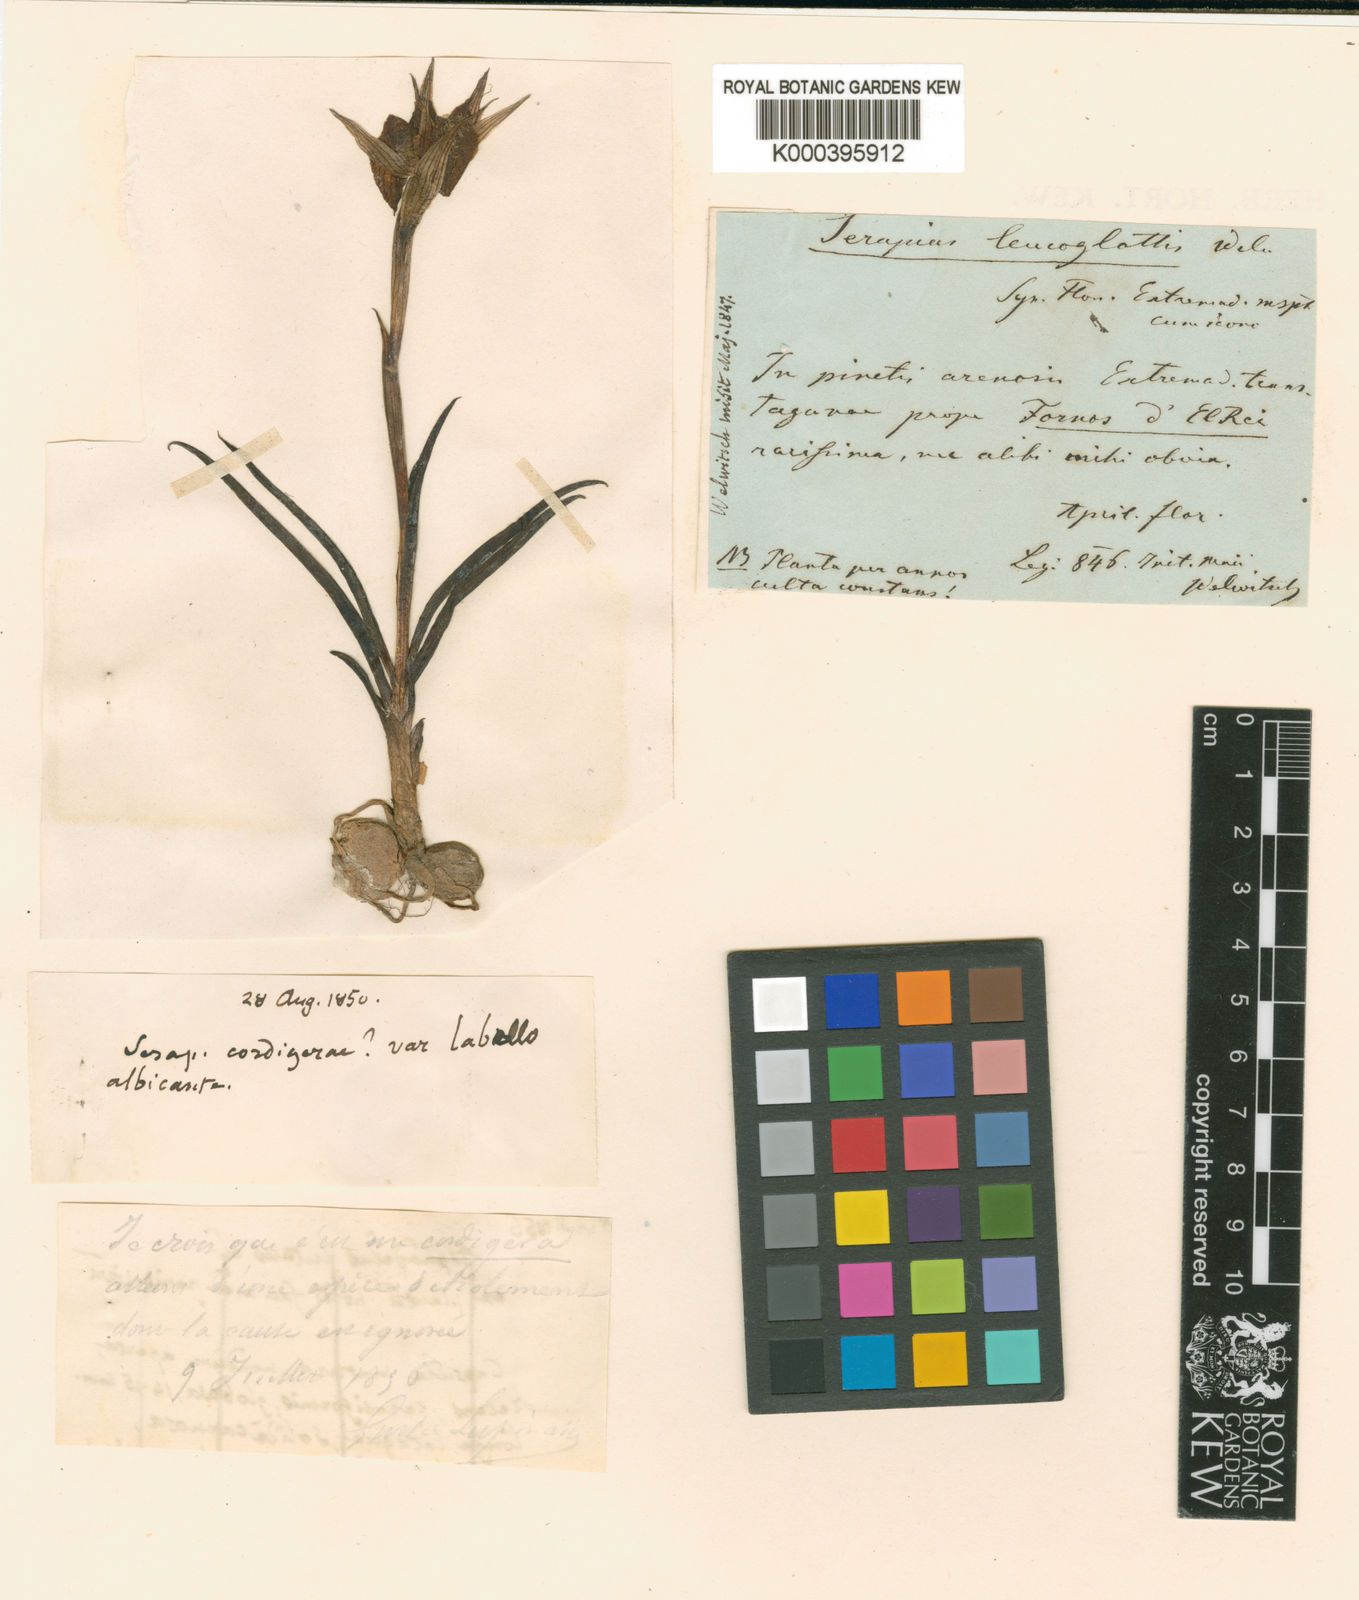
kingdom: Plantae
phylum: Tracheophyta
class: Liliopsida
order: Asparagales
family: Orchidaceae
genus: Serapias
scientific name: Serapias neglecta
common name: Neglected serapias
